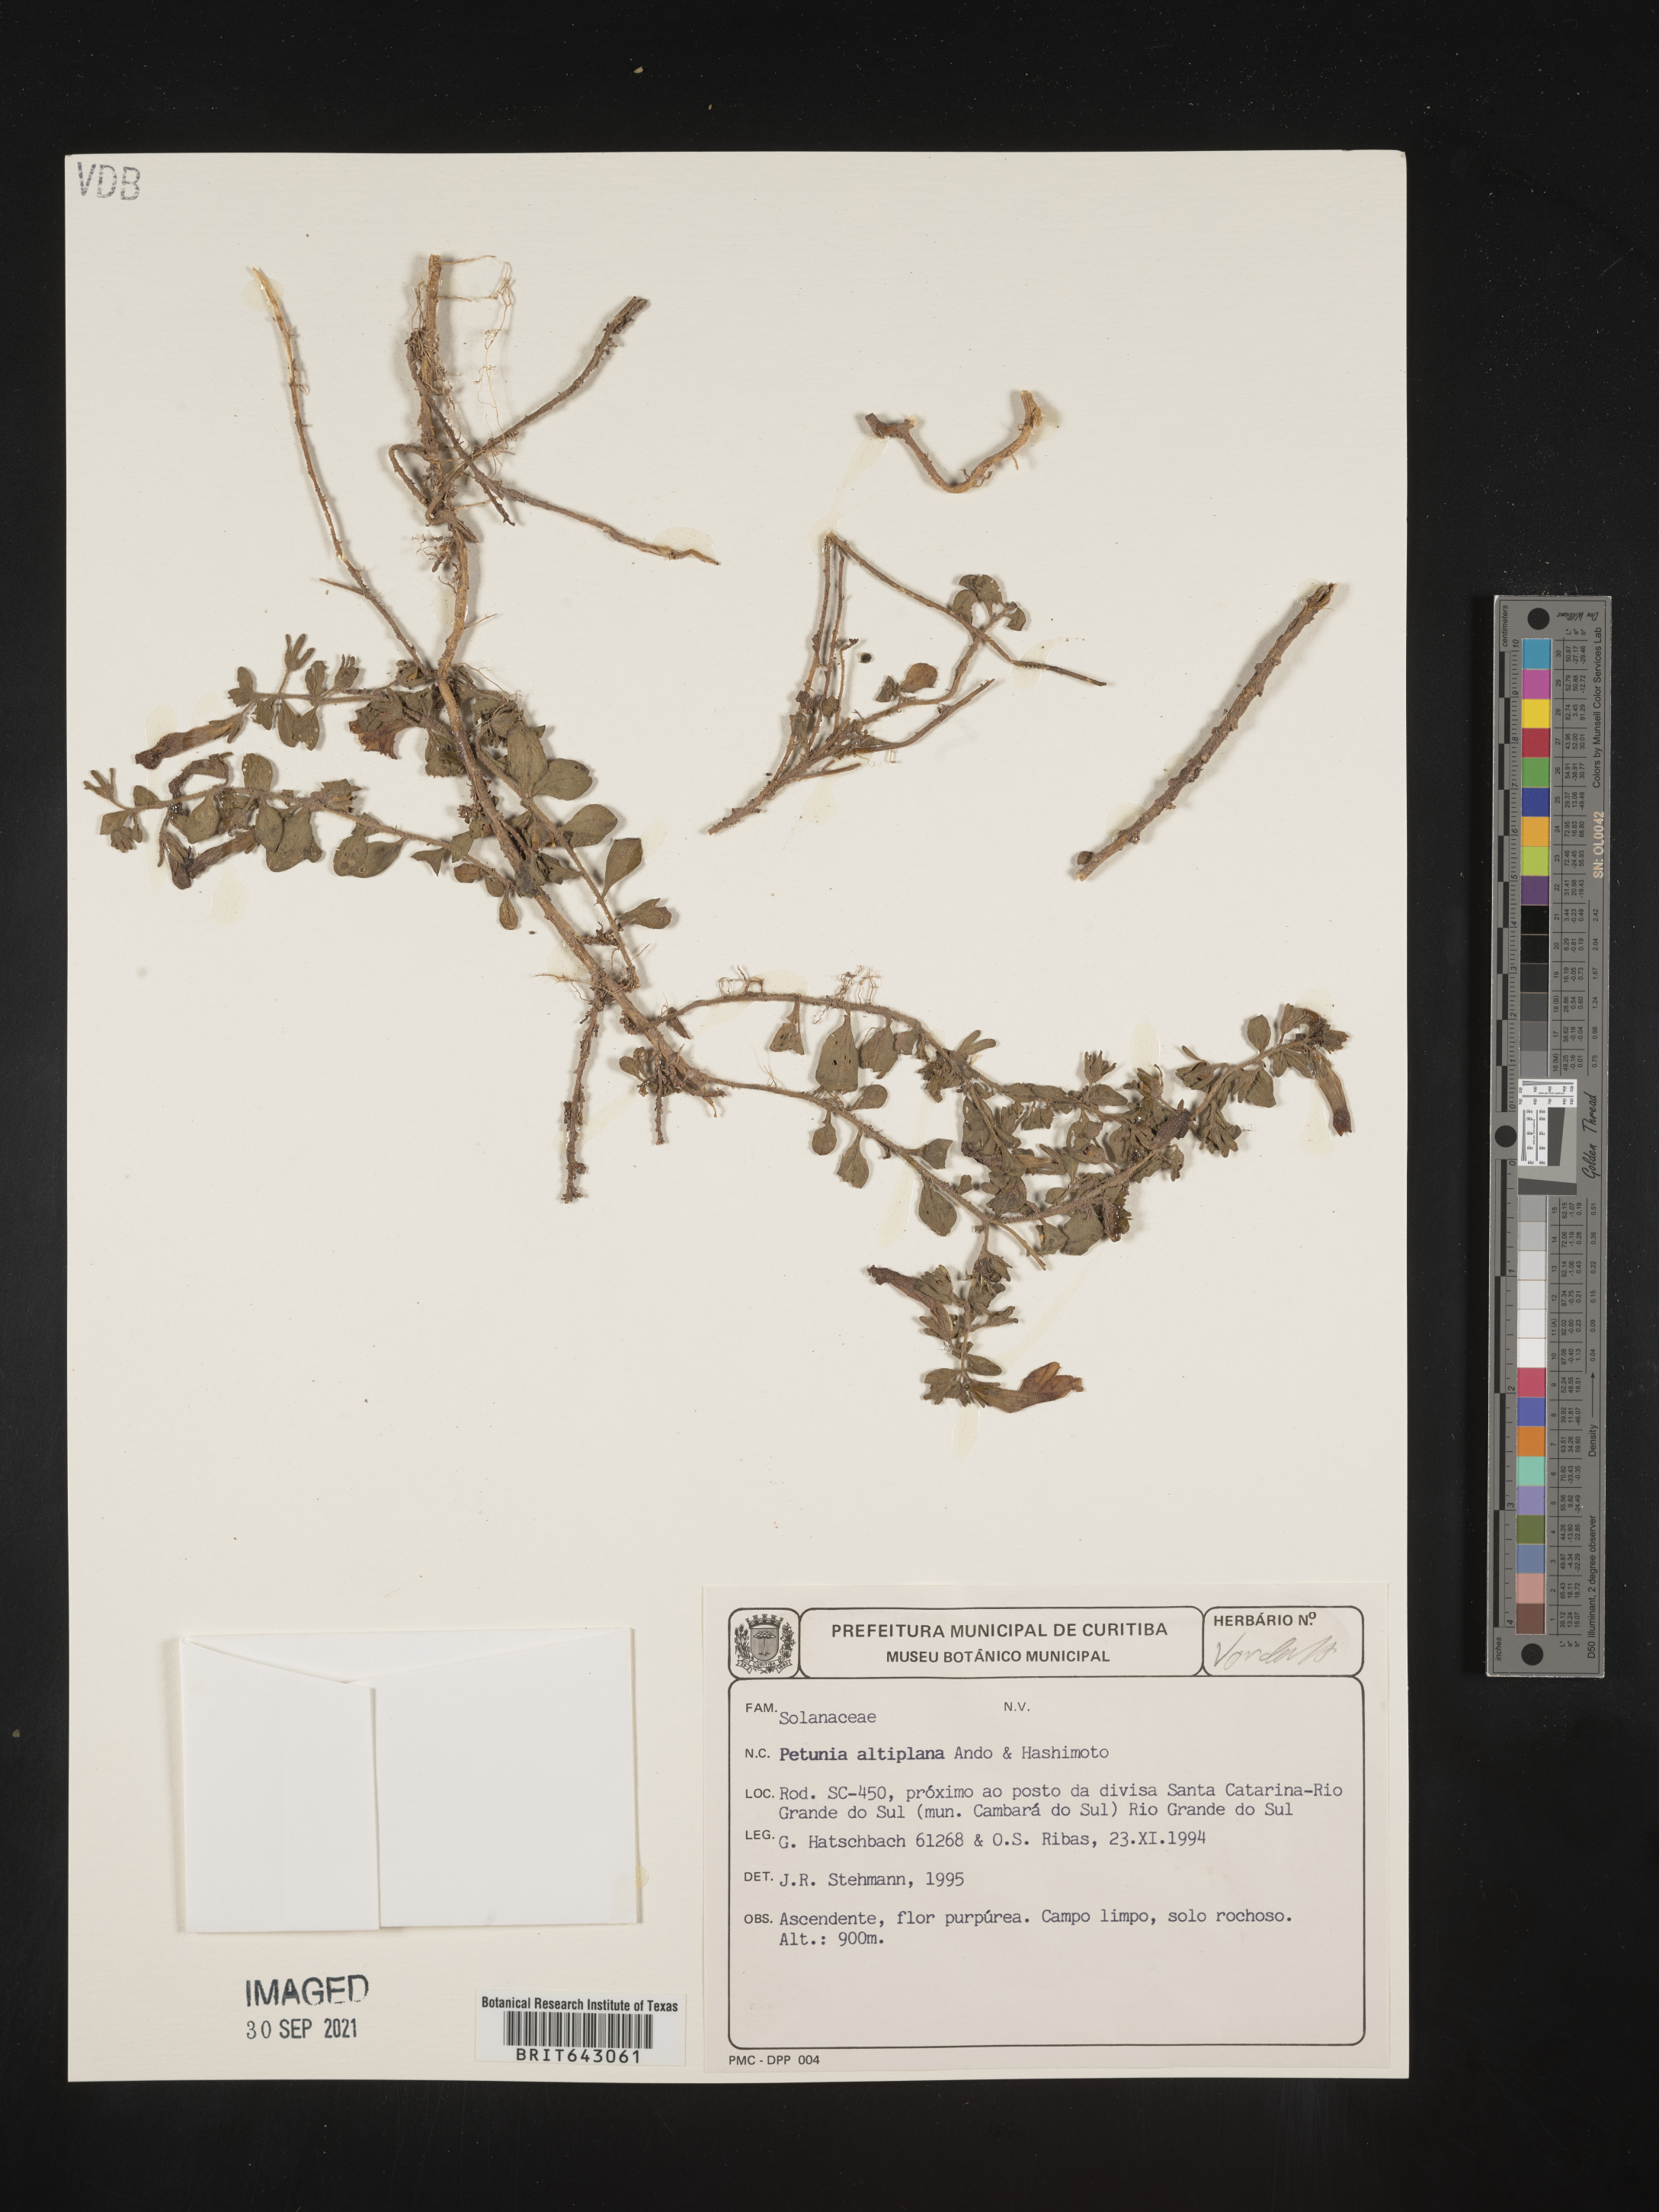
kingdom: Plantae
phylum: Tracheophyta
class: Magnoliopsida
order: Solanales
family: Solanaceae
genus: Petunia
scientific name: Petunia
